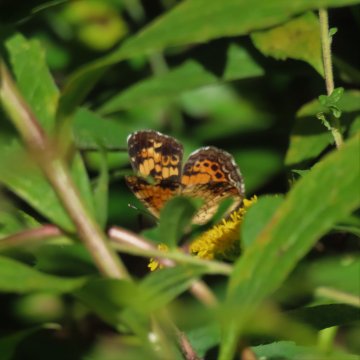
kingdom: Animalia
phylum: Arthropoda
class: Insecta
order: Lepidoptera
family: Nymphalidae
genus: Phyciodes
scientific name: Phyciodes tharos
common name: Pearl Crescent
